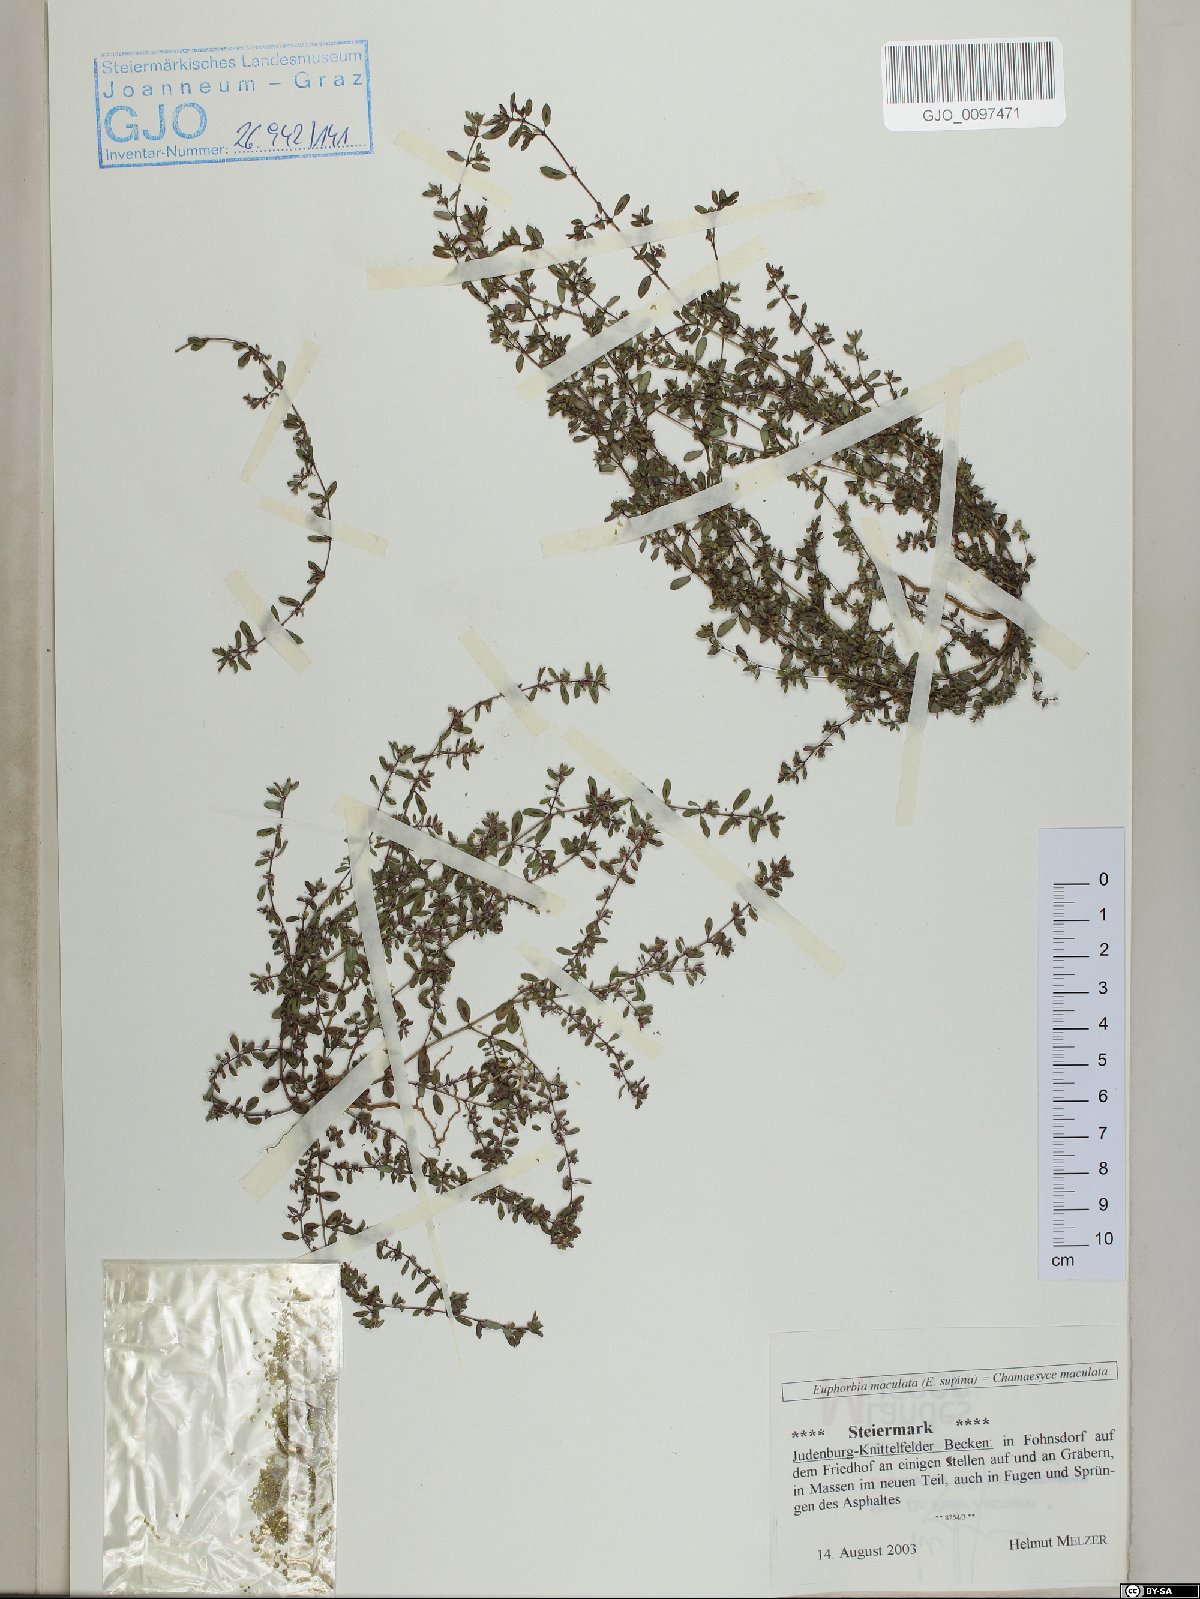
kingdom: Plantae
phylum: Tracheophyta
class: Magnoliopsida
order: Malpighiales
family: Euphorbiaceae
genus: Euphorbia
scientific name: Euphorbia maculata
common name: Spotted spurge
